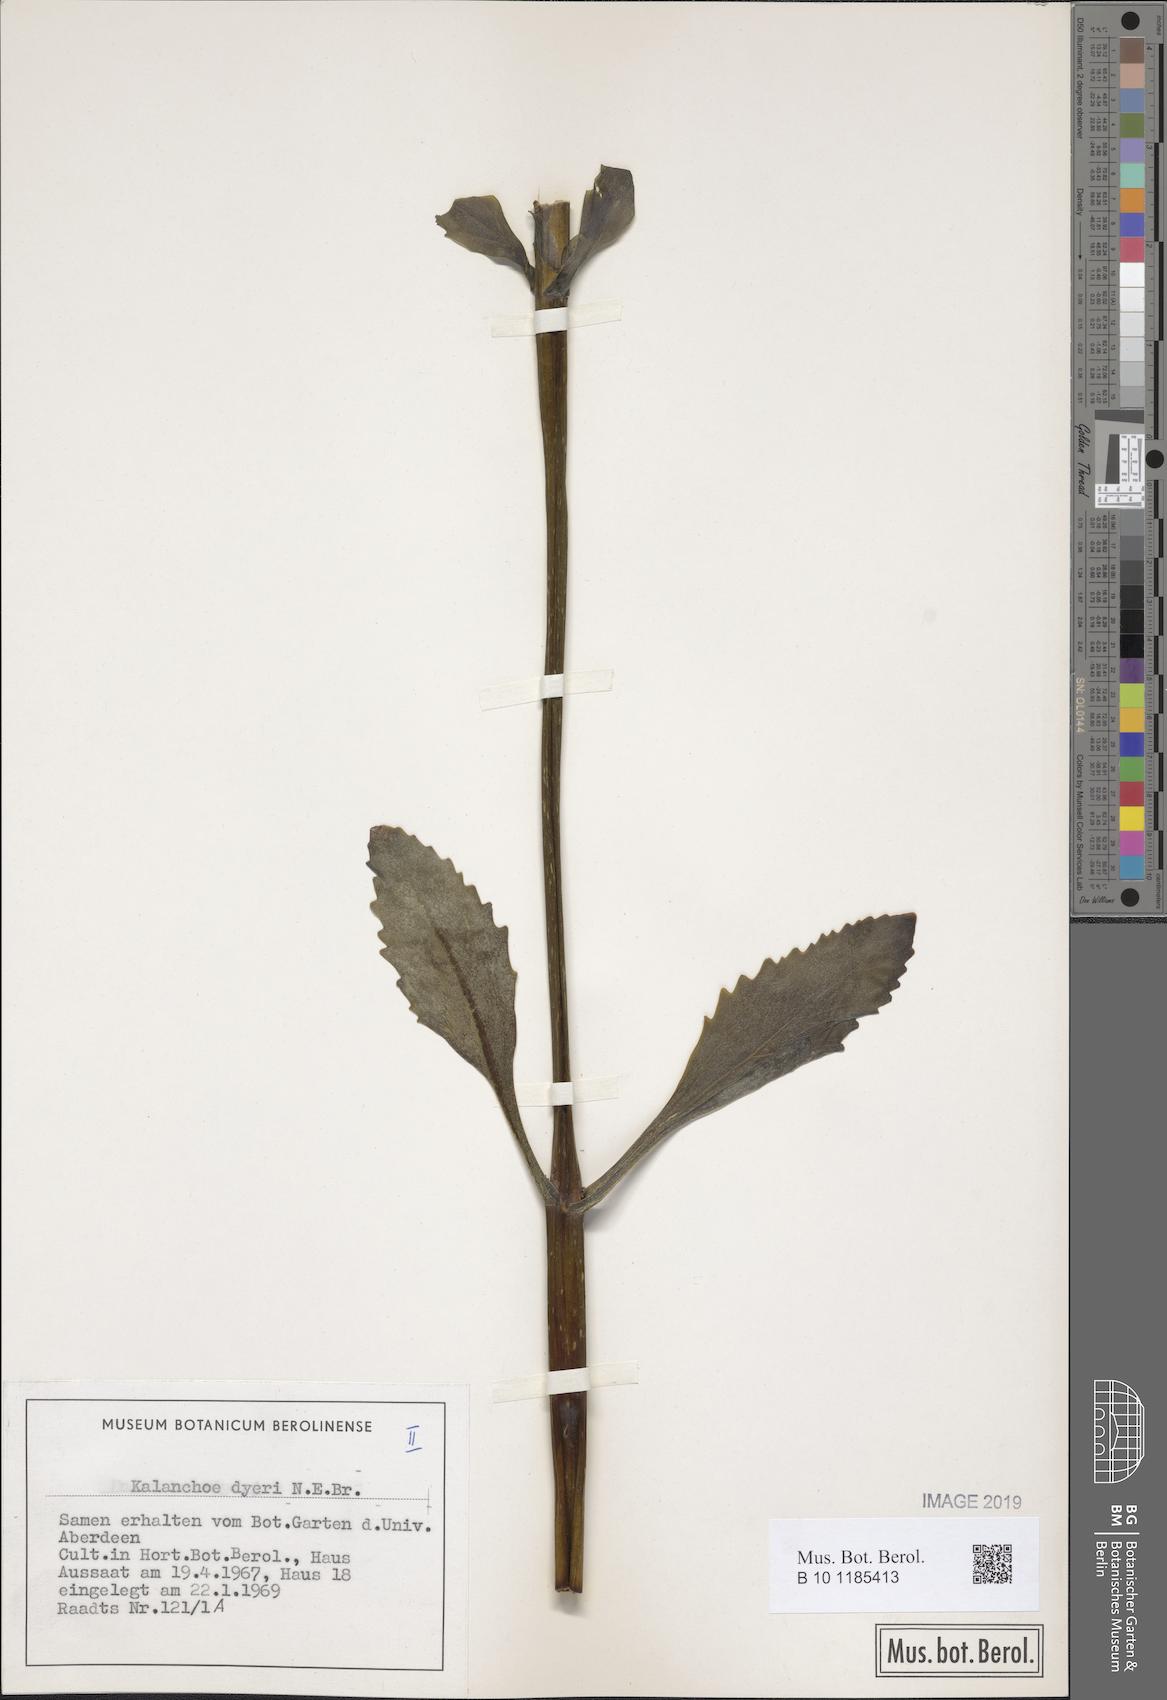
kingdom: Plantae
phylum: Tracheophyta
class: Magnoliopsida
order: Saxifragales
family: Crassulaceae
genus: Kalanchoe
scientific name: Kalanchoe dyeri
